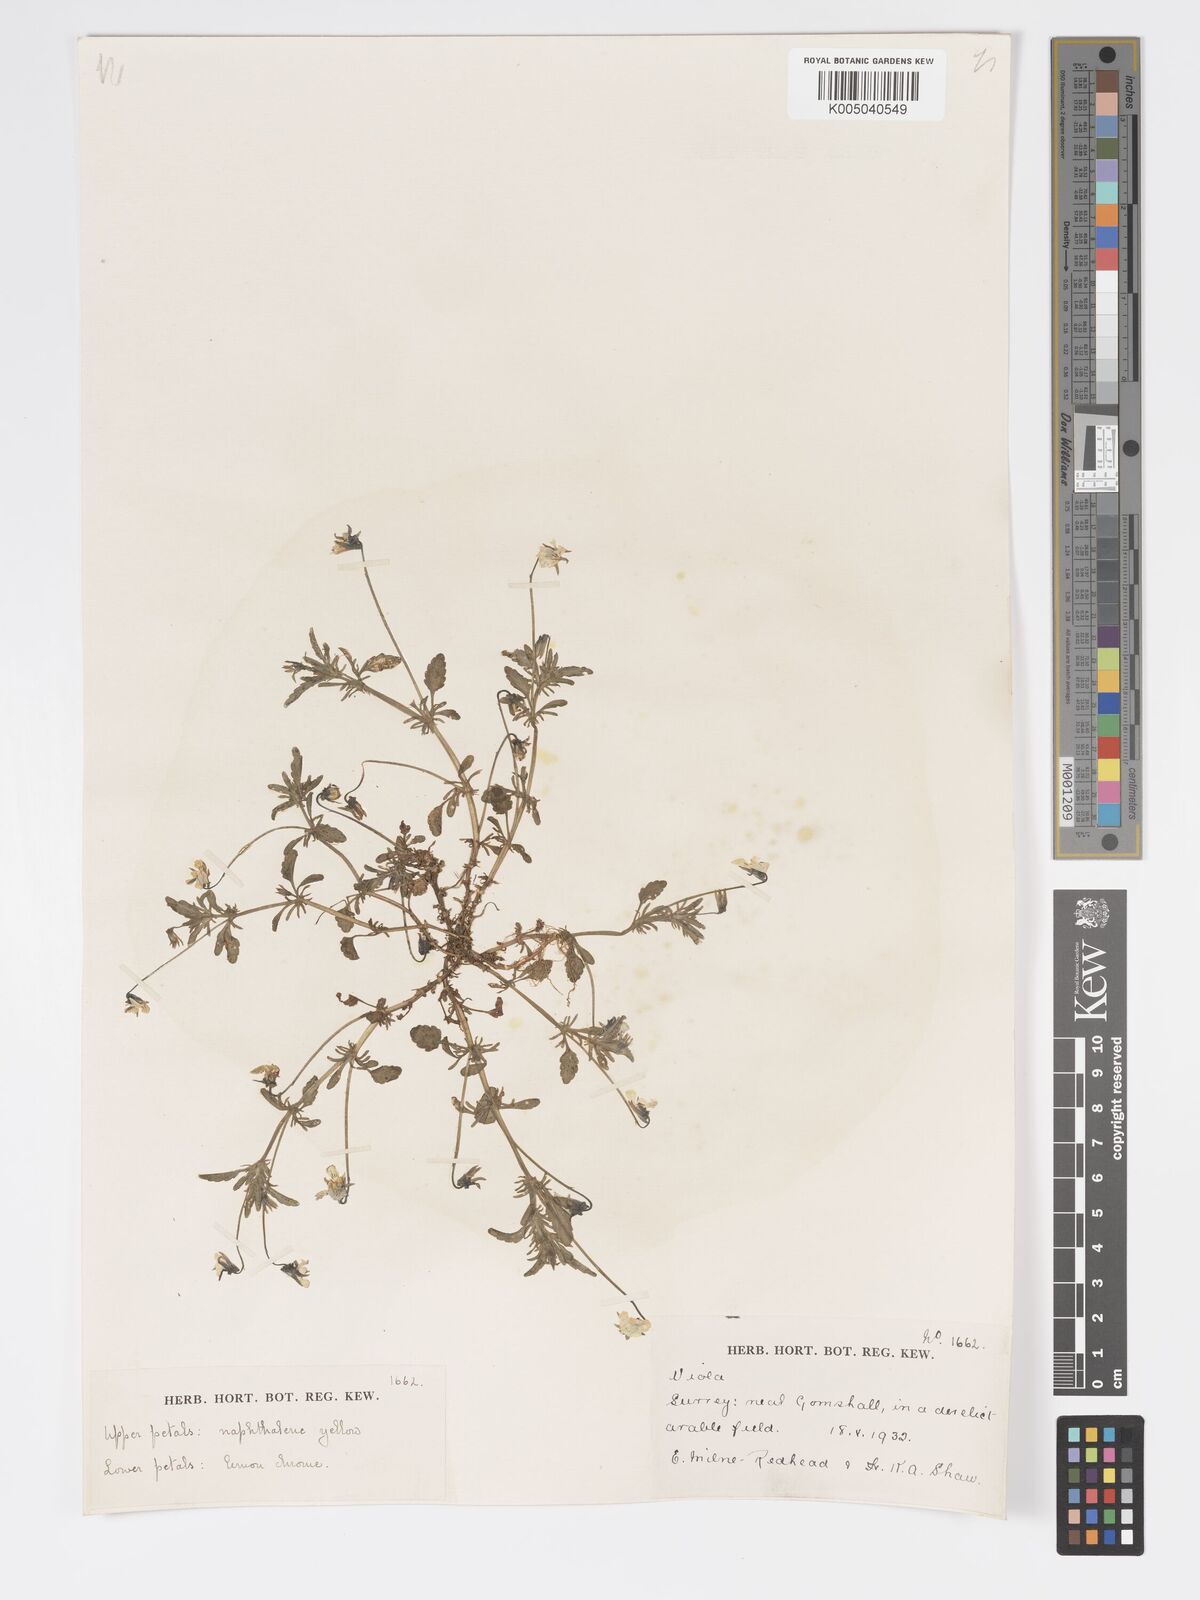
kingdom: Plantae
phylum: Tracheophyta
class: Magnoliopsida
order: Malpighiales
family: Violaceae
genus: Viola
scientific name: Viola
